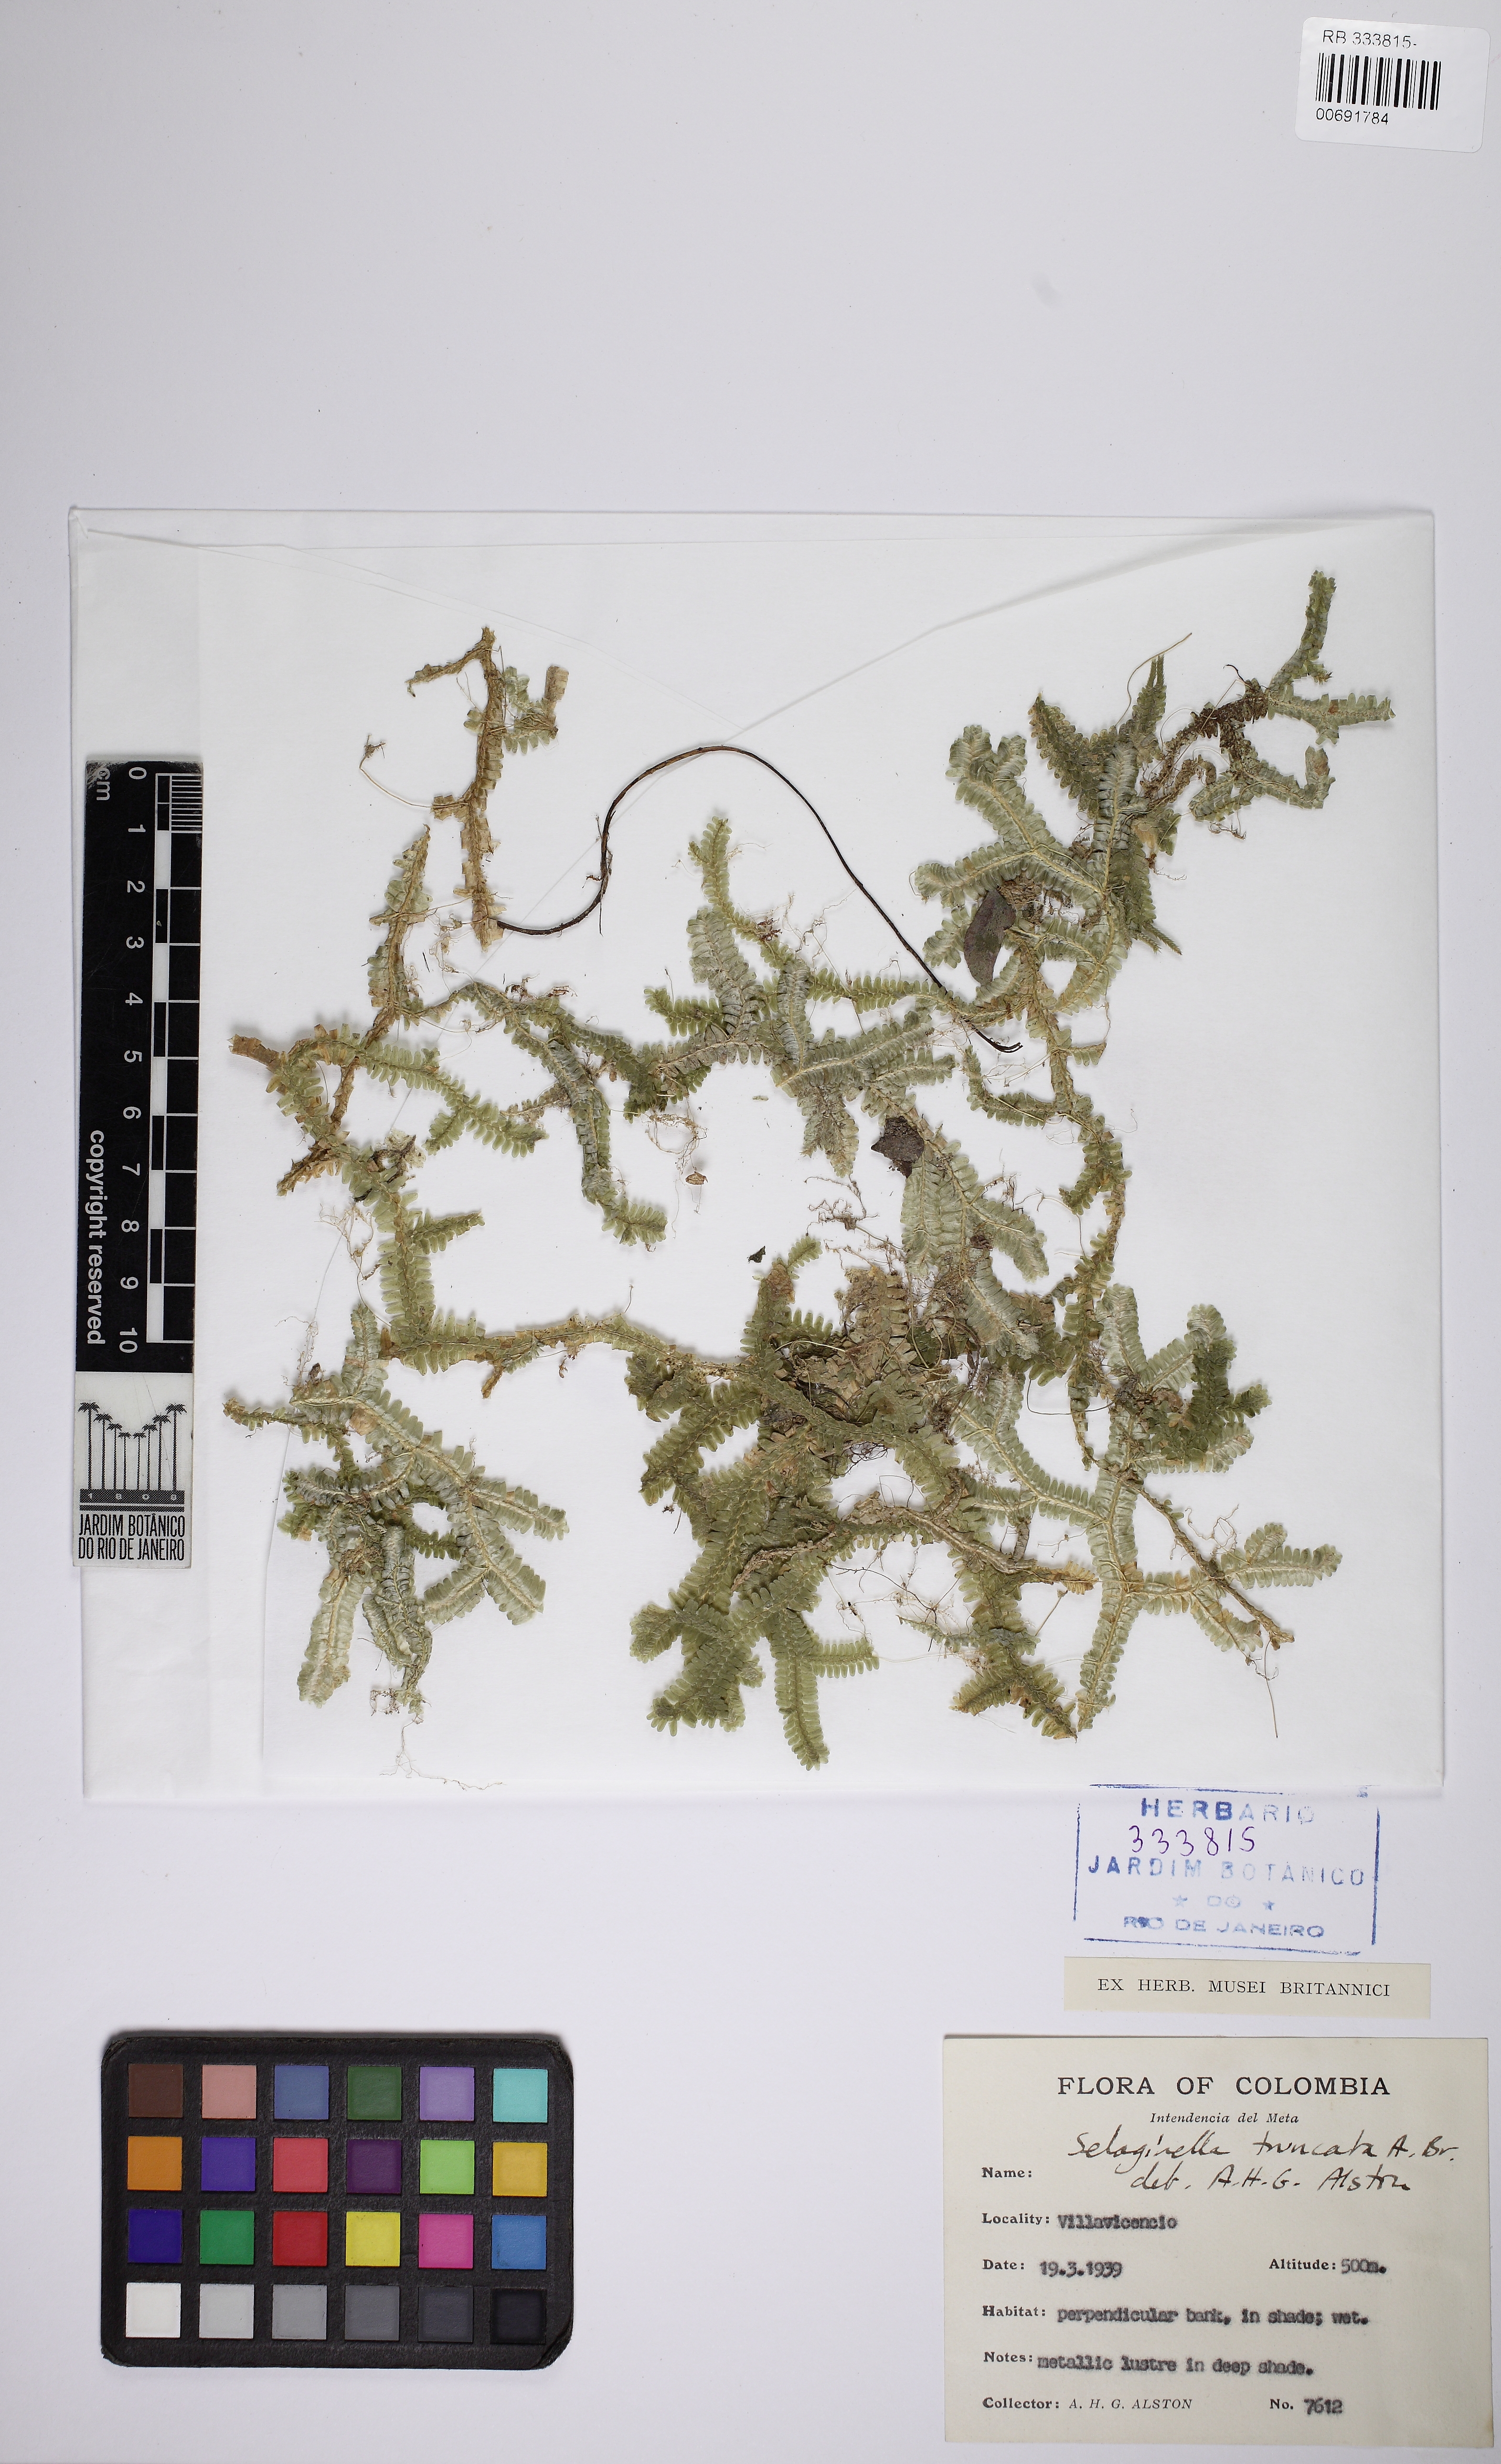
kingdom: Plantae
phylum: Tracheophyta
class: Lycopodiopsida
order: Selaginellales
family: Selaginellaceae
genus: Selaginella
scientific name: Selaginella truncata
